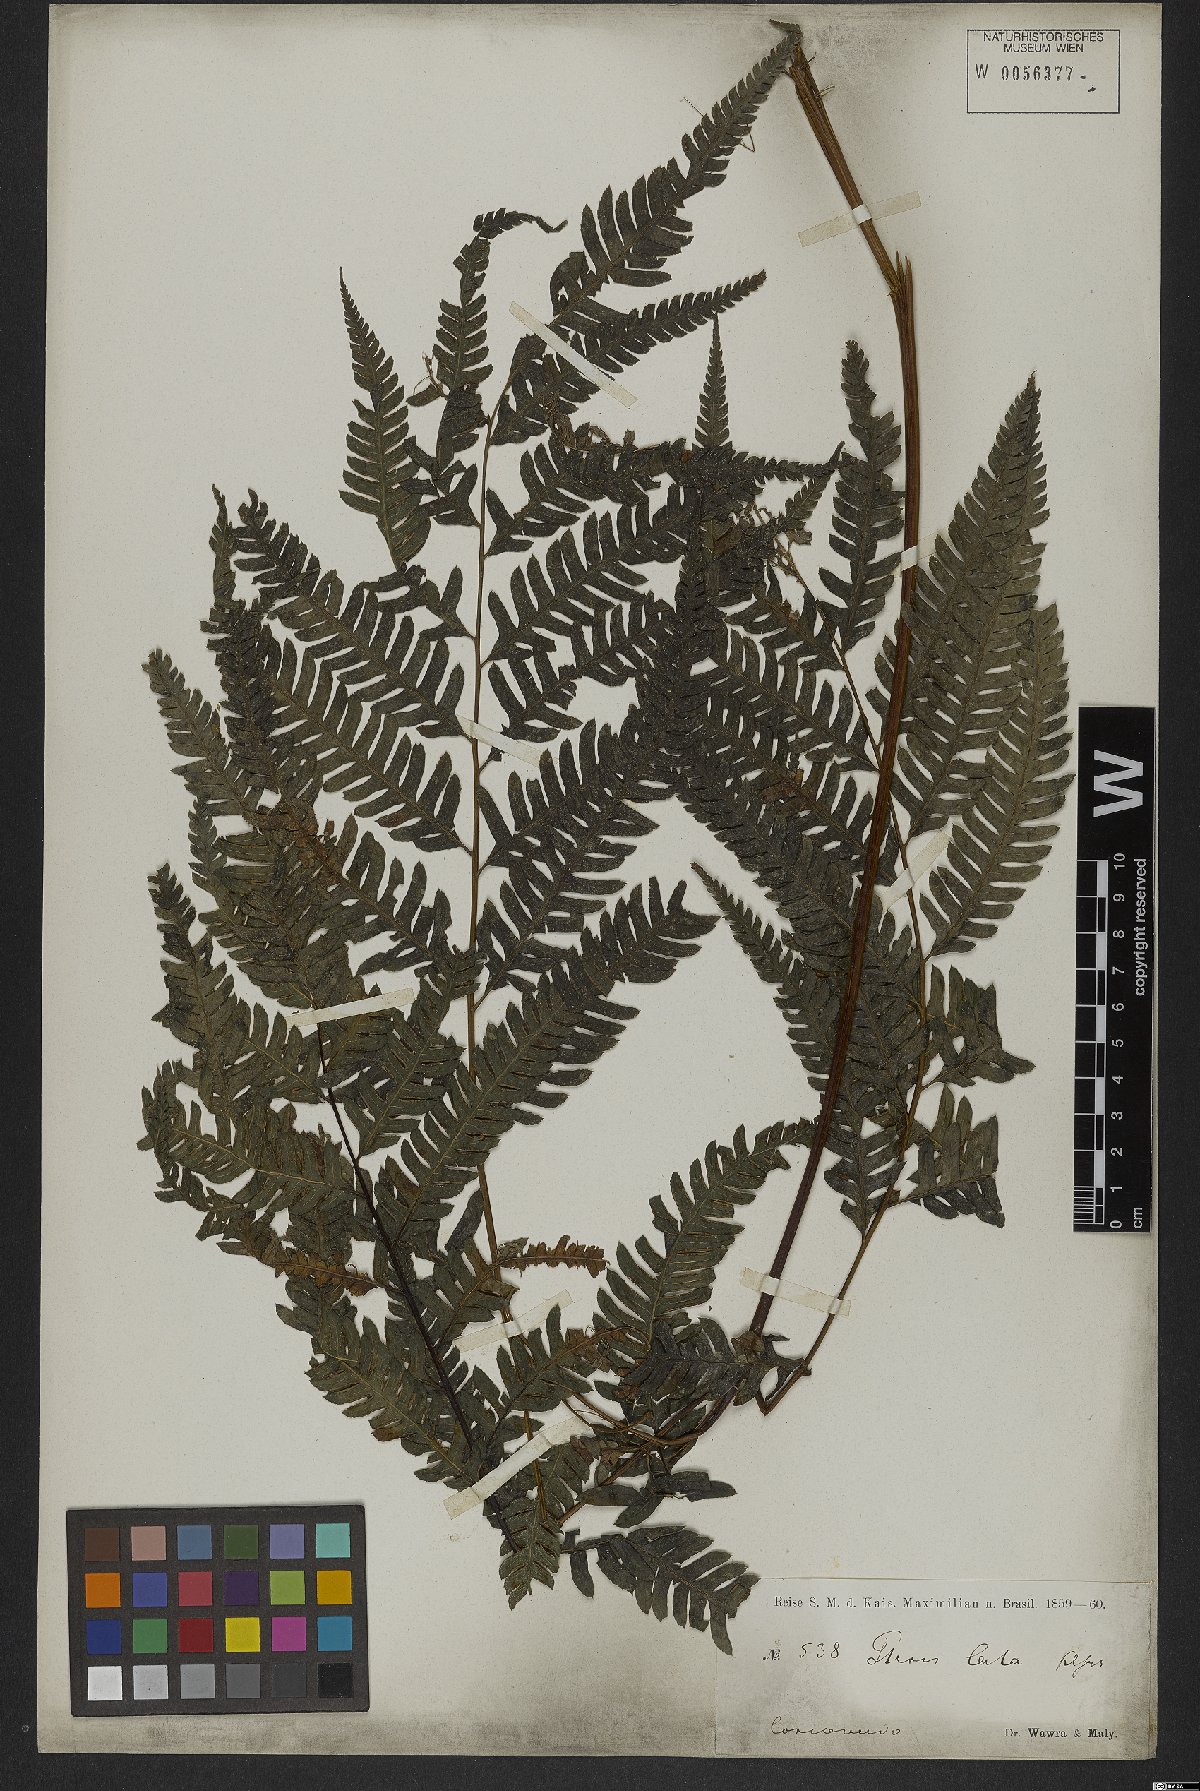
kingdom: Plantae
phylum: Tracheophyta
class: Polypodiopsida
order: Polypodiales
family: Pteridaceae
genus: Pteris
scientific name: Pteris deflexa
